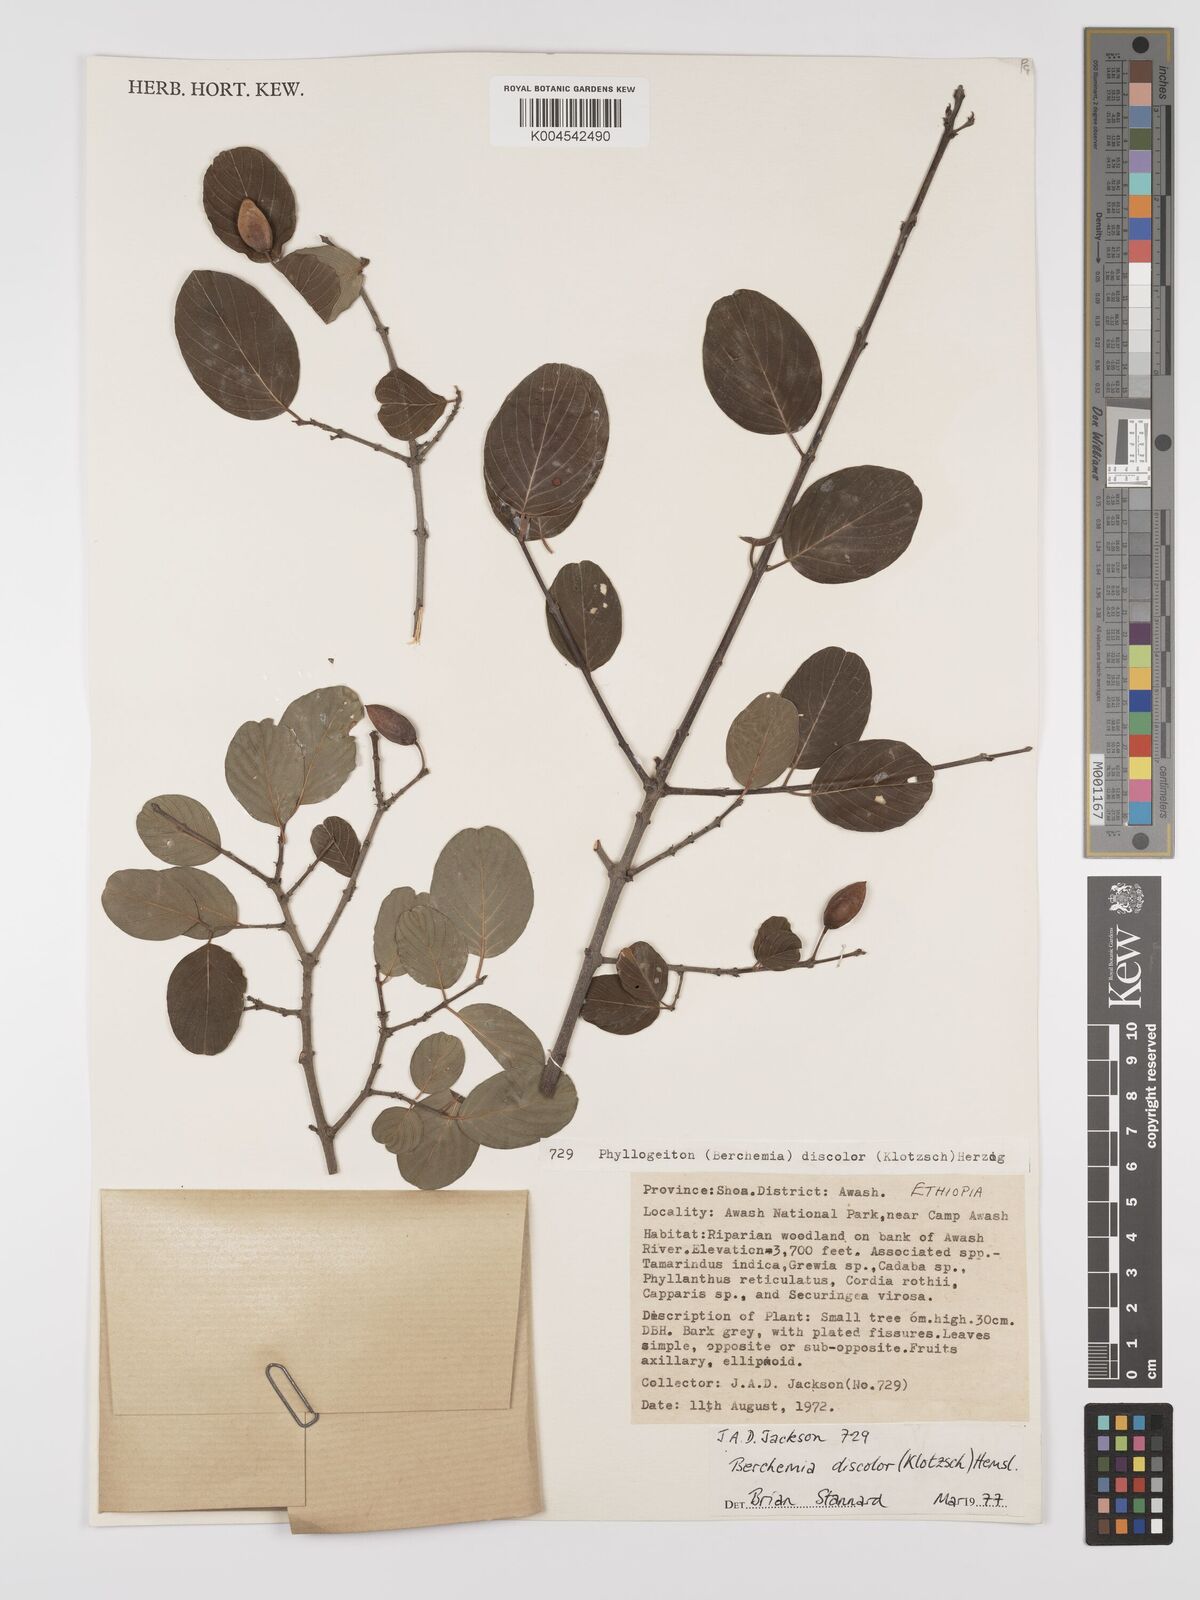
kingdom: Plantae
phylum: Tracheophyta
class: Magnoliopsida
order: Rosales
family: Rhamnaceae
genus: Phyllogeiton
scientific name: Phyllogeiton discolor
